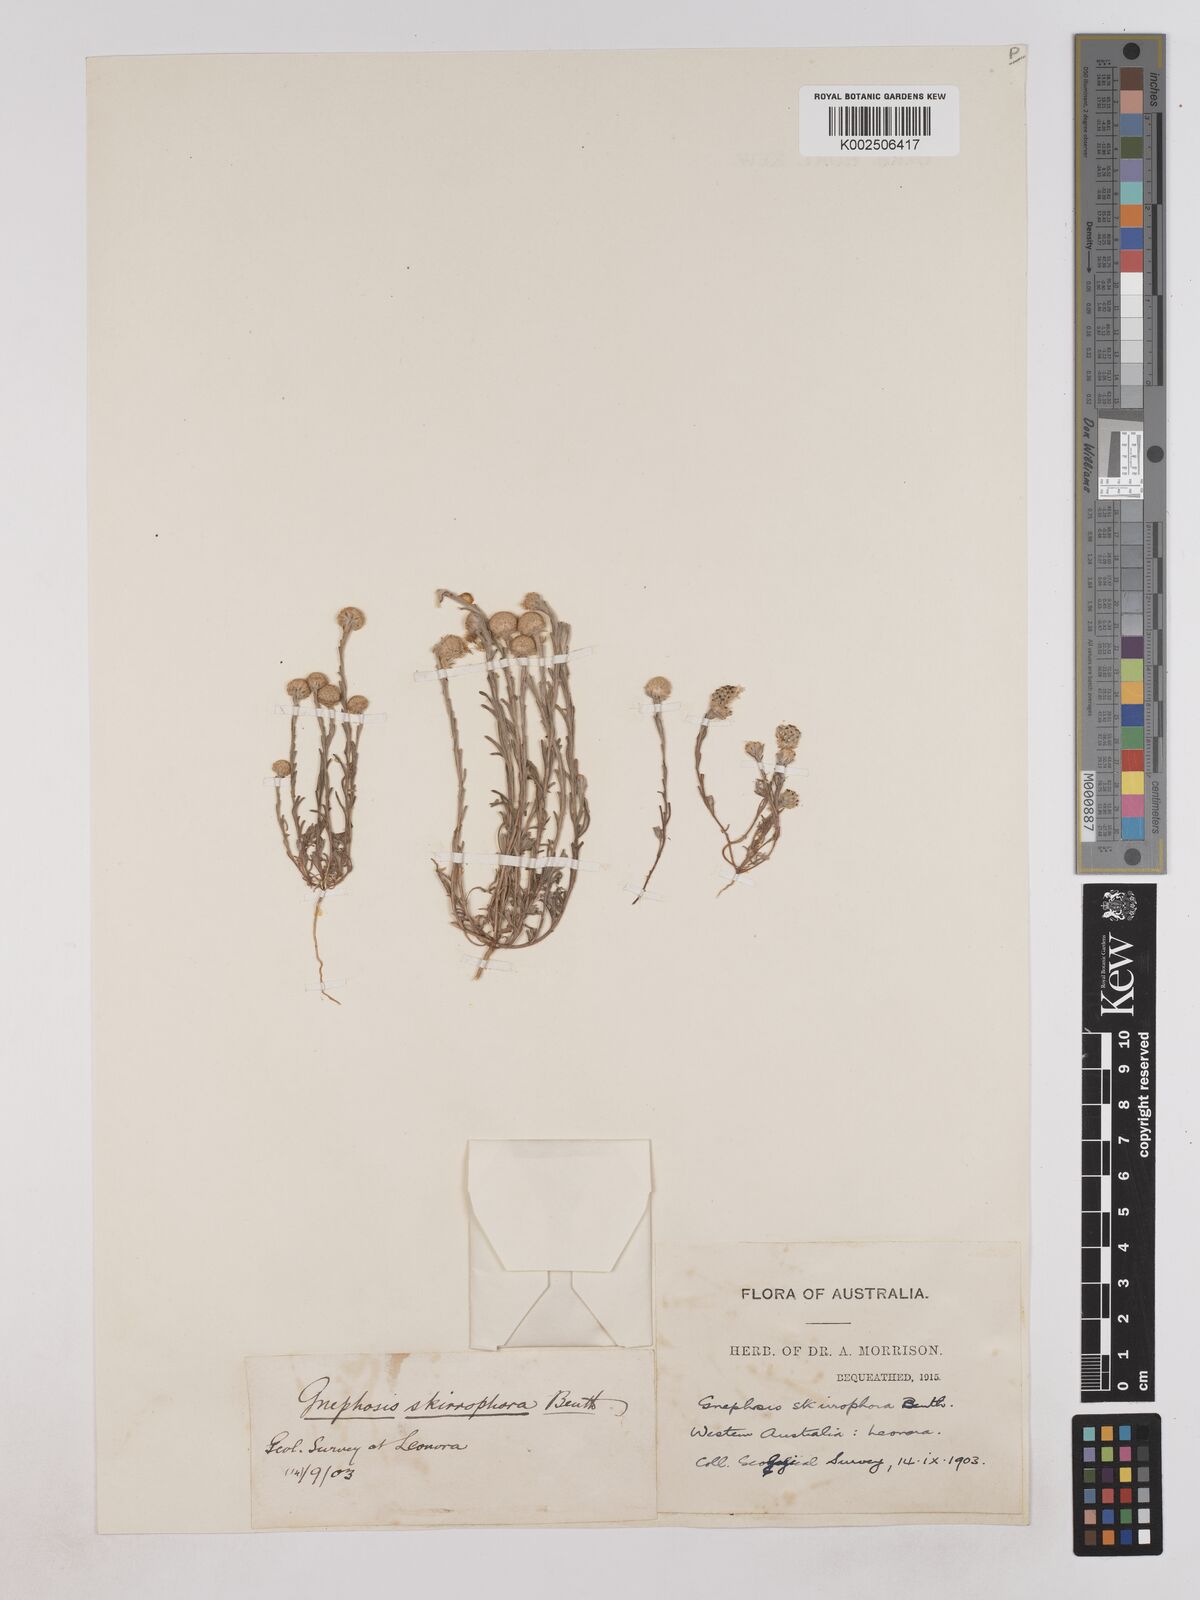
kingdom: Plantae
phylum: Tracheophyta
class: Magnoliopsida
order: Asterales
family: Asteraceae
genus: Trichanthodium
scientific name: Trichanthodium skirrophorum
